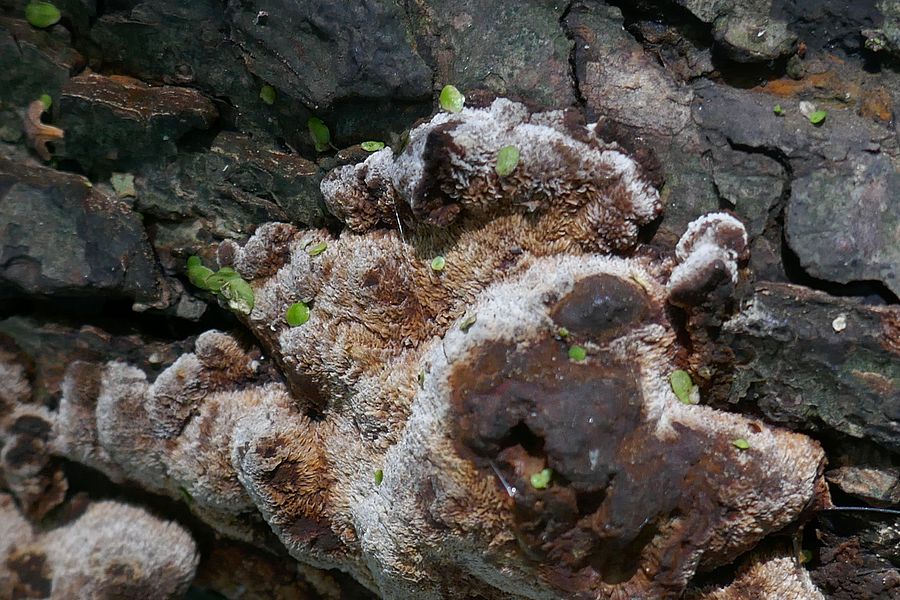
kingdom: Fungi
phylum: Basidiomycota
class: Agaricomycetes
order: Hymenochaetales
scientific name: Hymenochaetales
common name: børstesvampordenen
